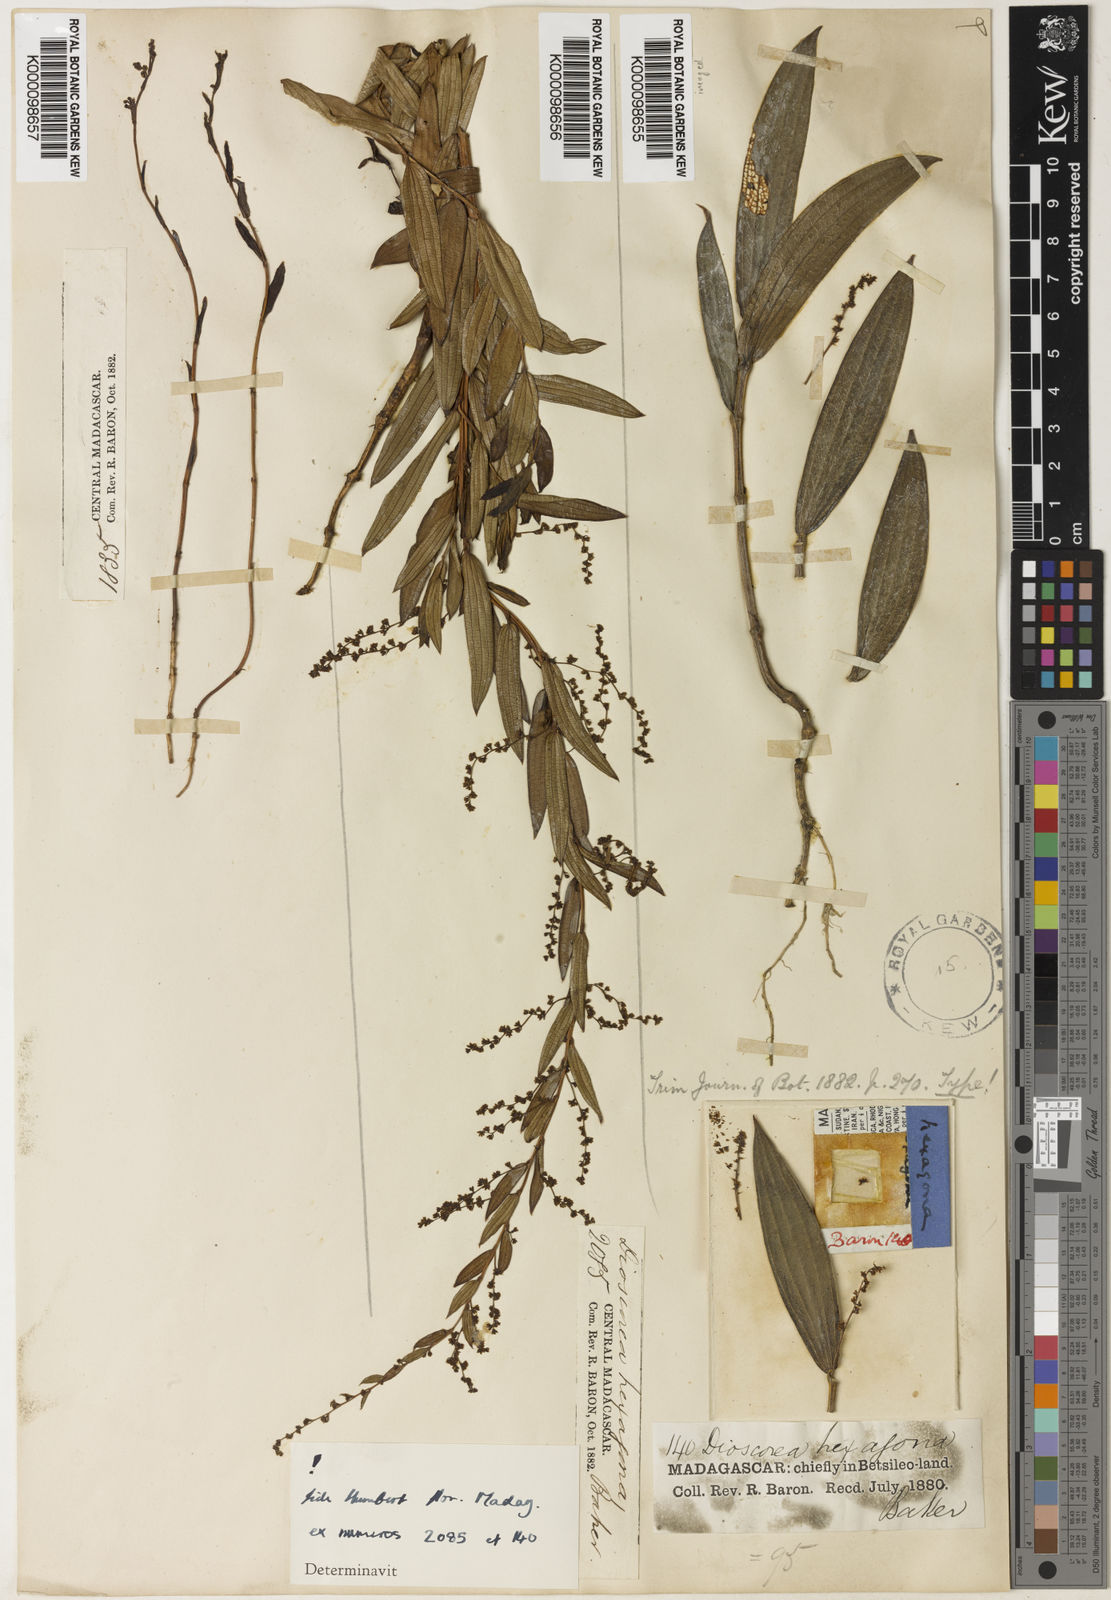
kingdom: Plantae
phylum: Tracheophyta
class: Liliopsida
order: Dioscoreales
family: Dioscoreaceae
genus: Dioscorea
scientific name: Dioscorea hexagona
